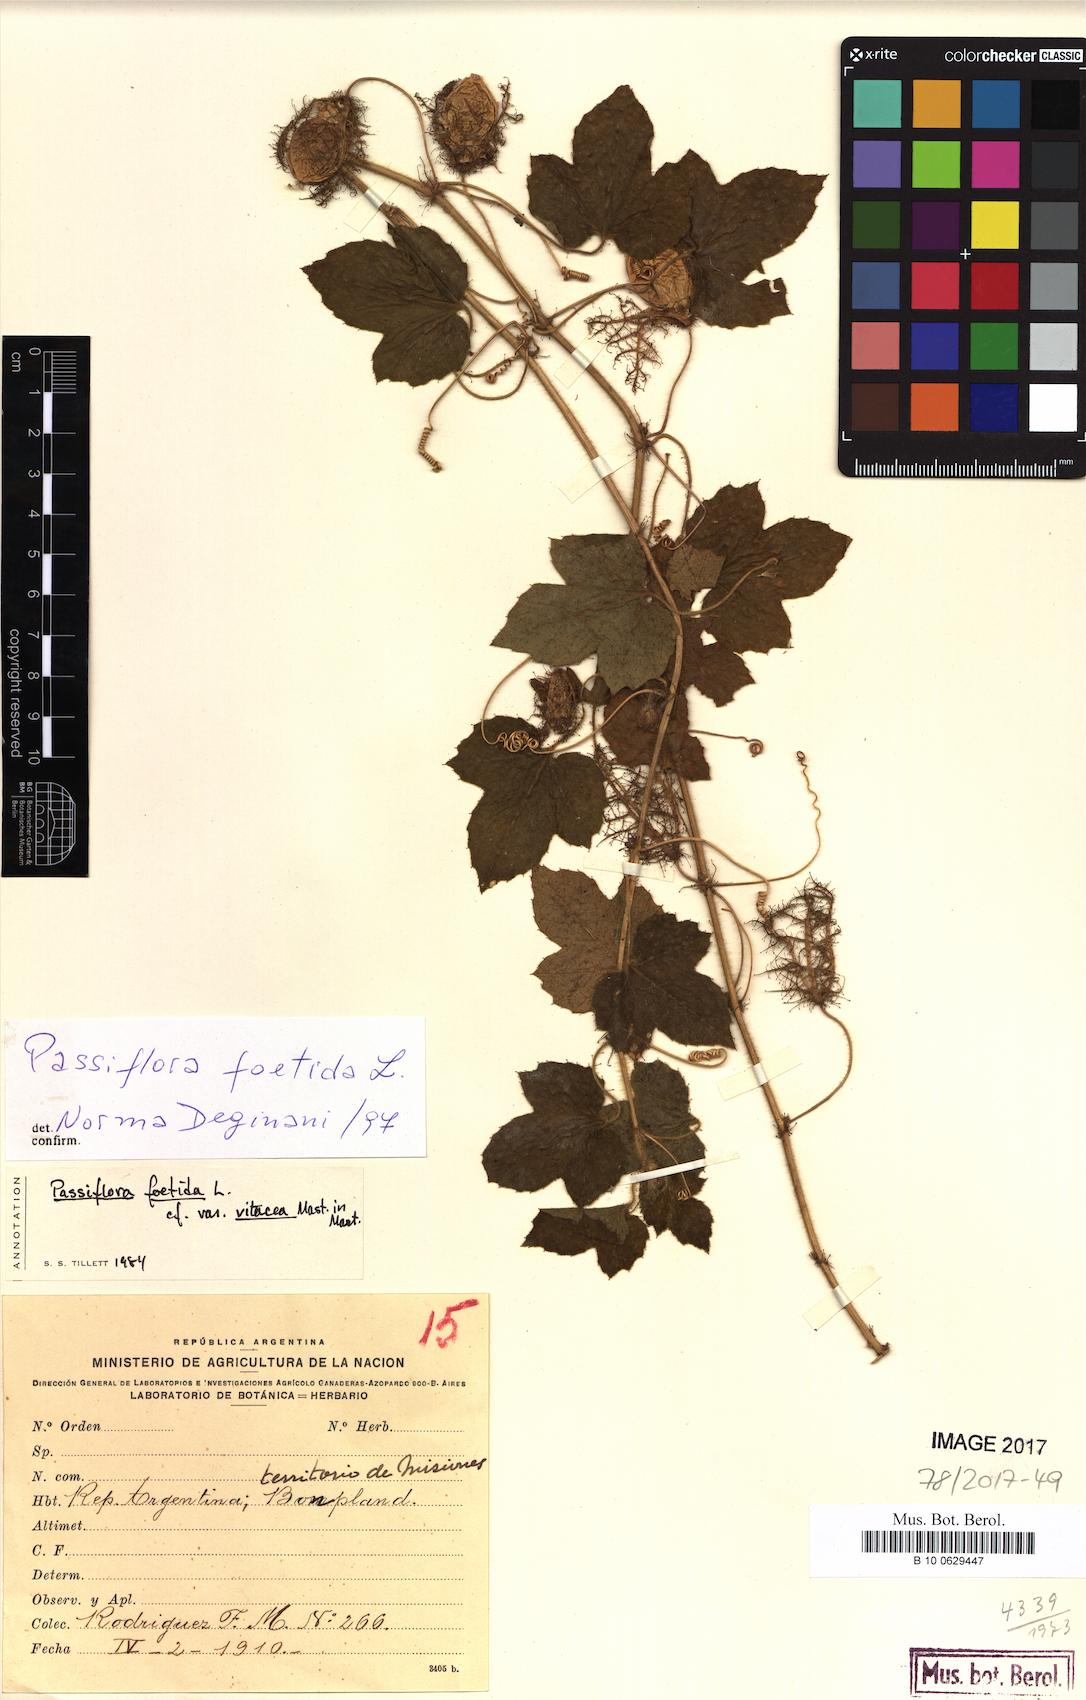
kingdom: Plantae
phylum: Tracheophyta
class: Magnoliopsida
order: Malpighiales
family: Passifloraceae
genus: Passiflora
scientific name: Passiflora foetida
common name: Fetid passionflower
